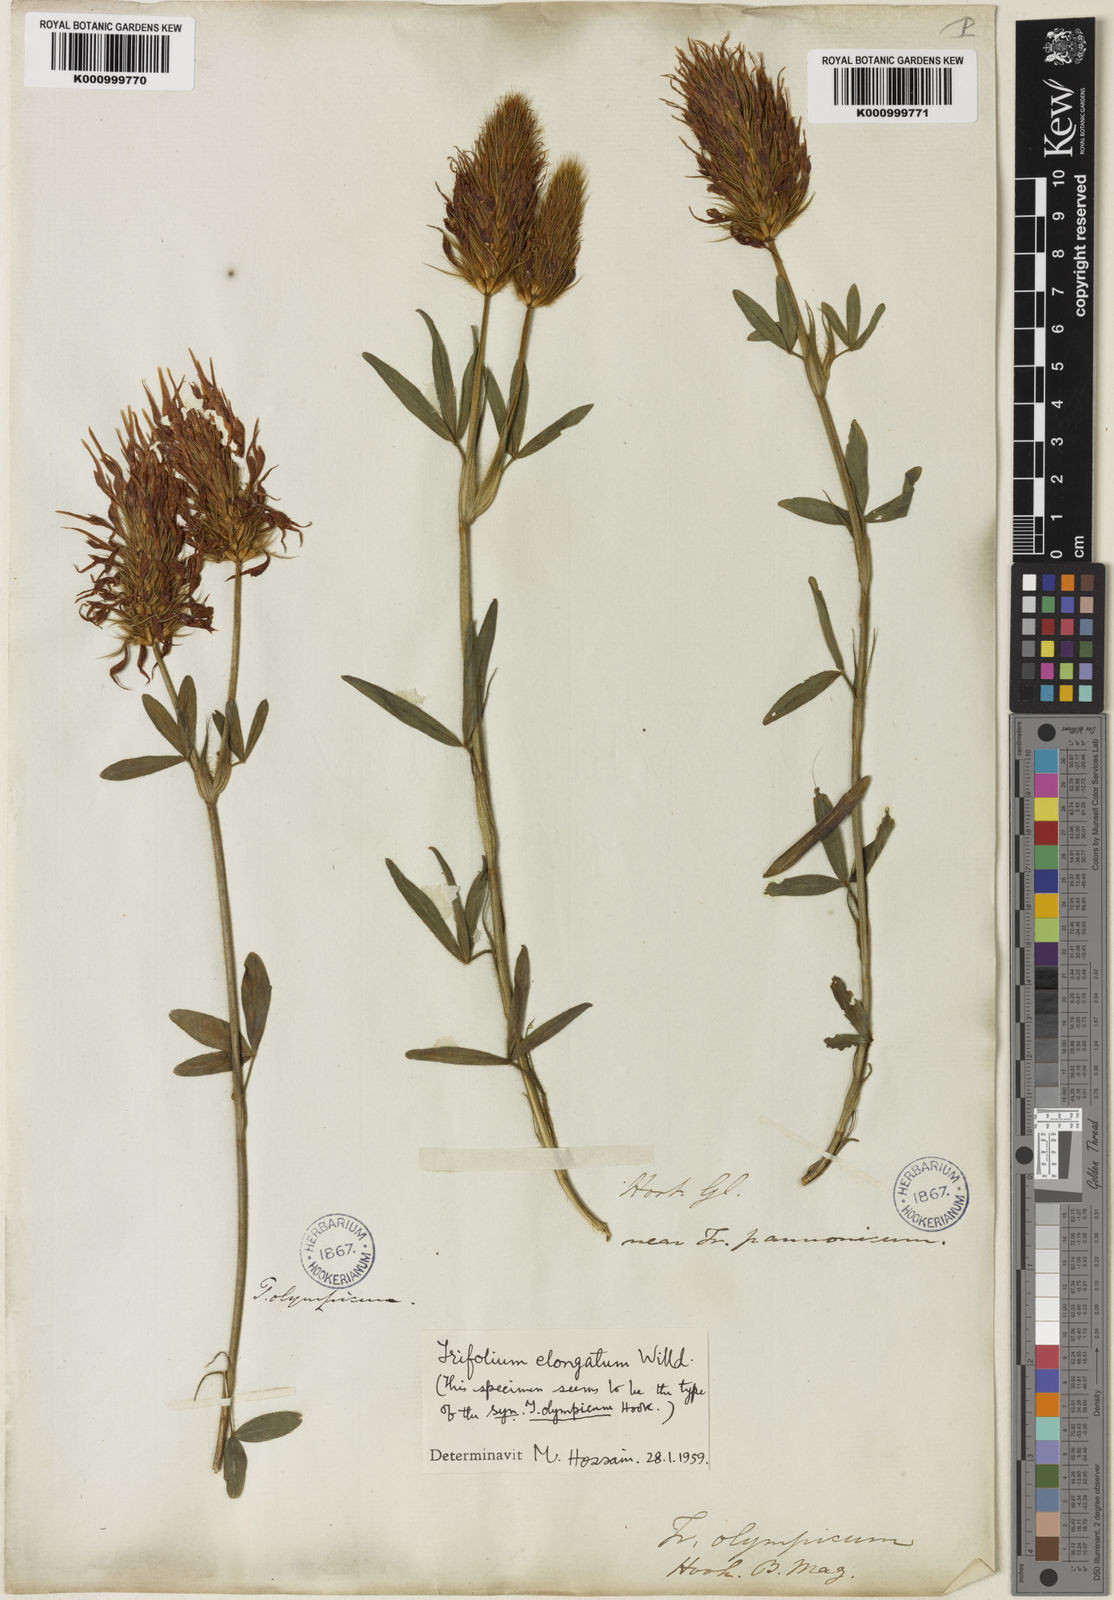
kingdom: Plantae
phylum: Tracheophyta
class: Magnoliopsida
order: Fabales
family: Fabaceae
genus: Trifolium
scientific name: Trifolium pannonicum
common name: Hungarian clover
